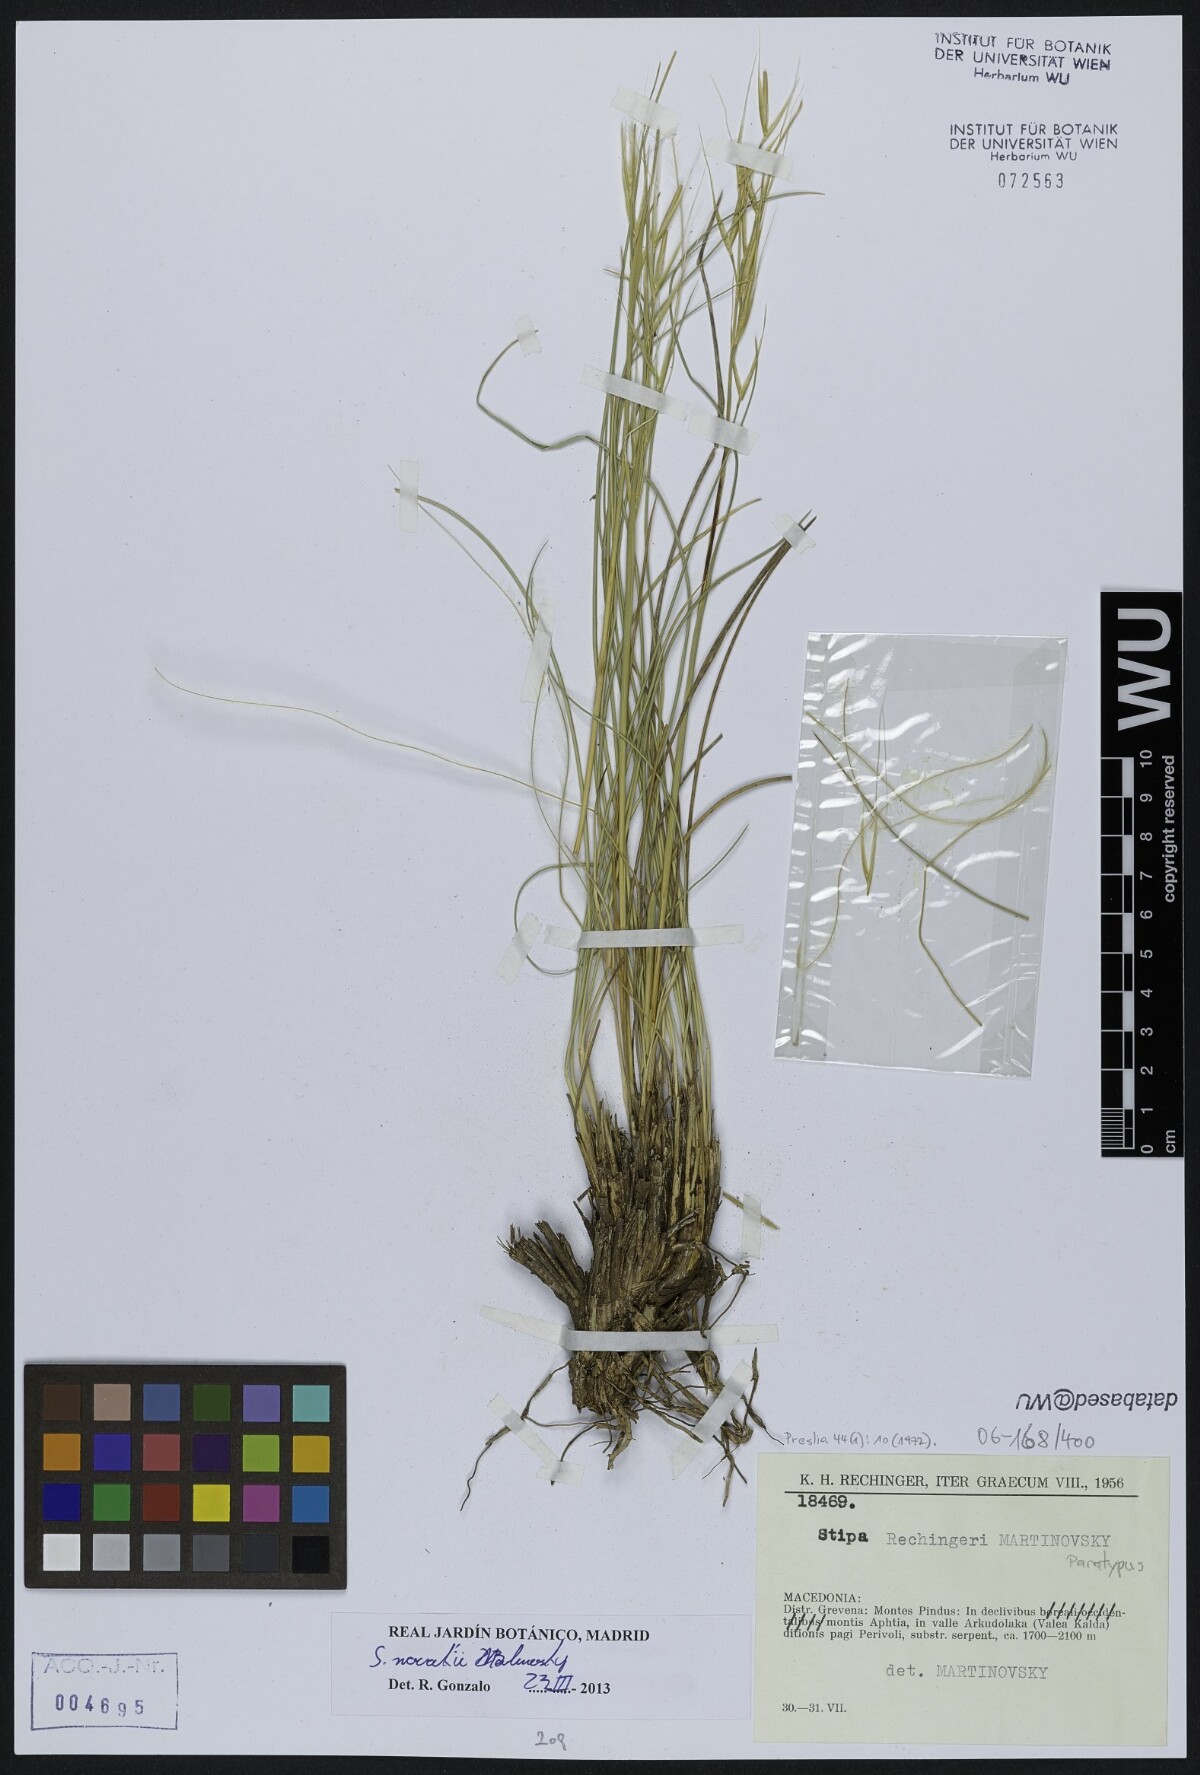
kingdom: Plantae
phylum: Tracheophyta
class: Liliopsida
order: Poales
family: Poaceae
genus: Stipa
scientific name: Stipa rechingeri
